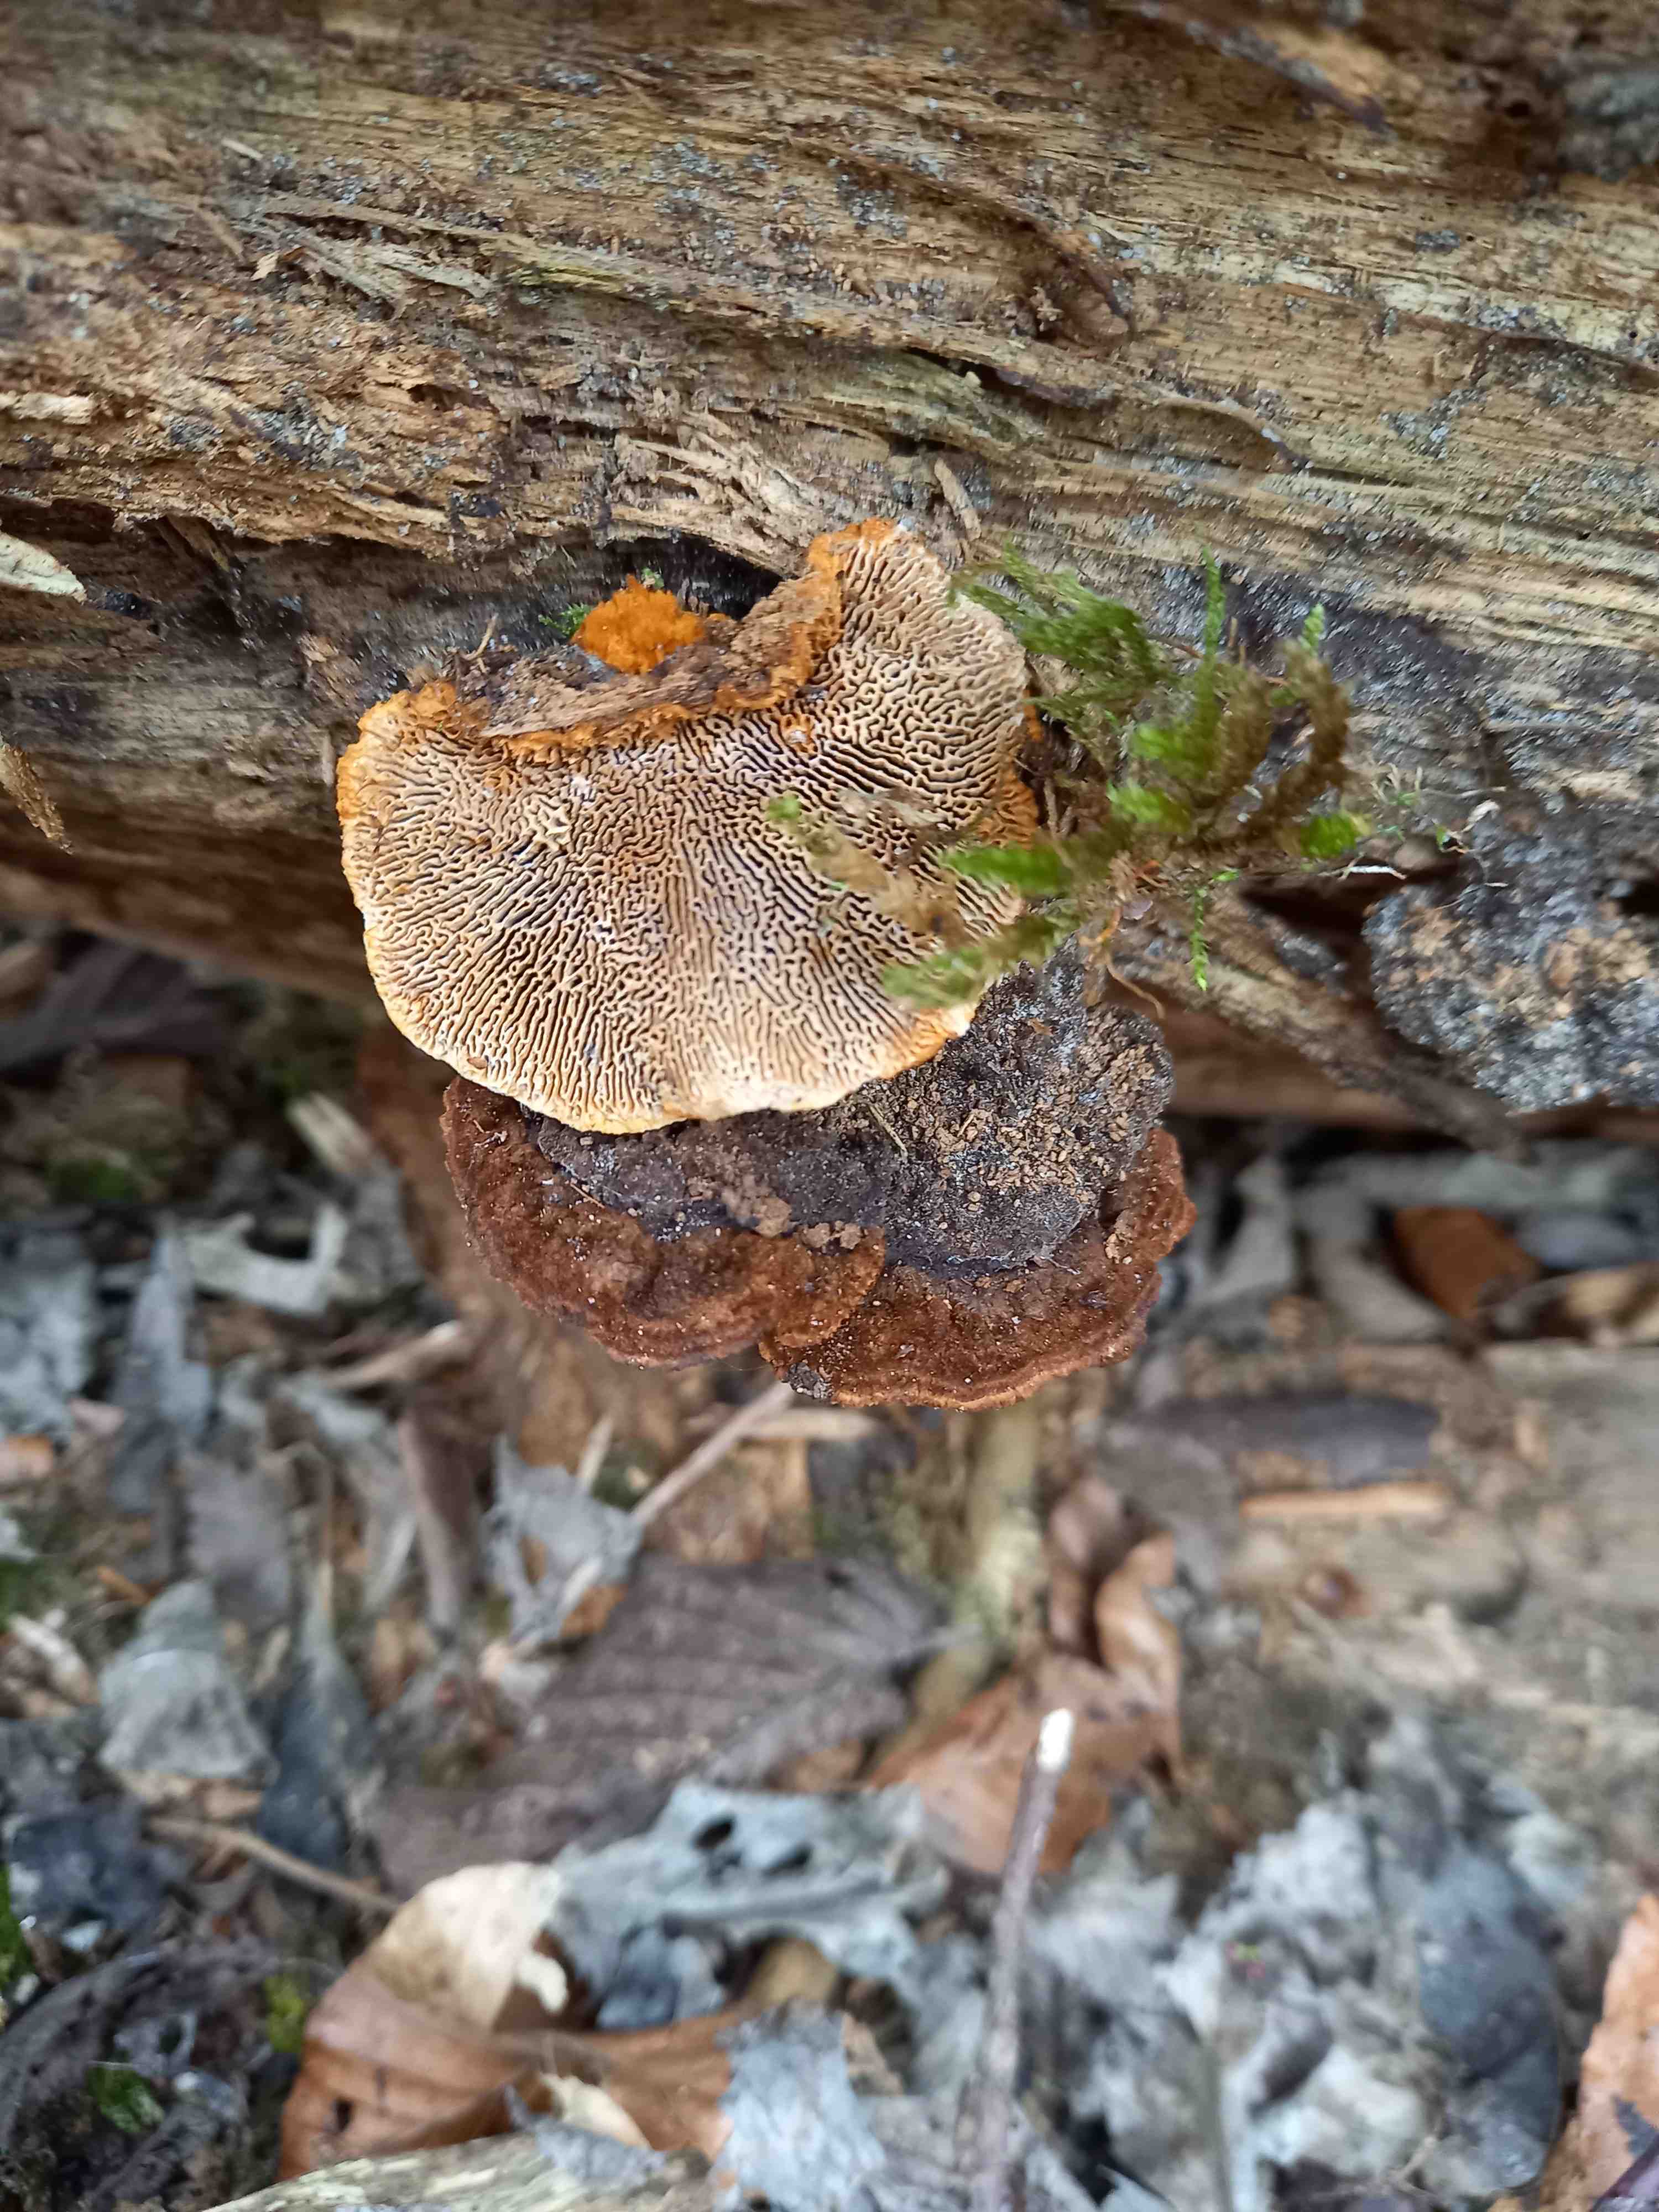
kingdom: Fungi
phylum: Basidiomycota
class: Agaricomycetes
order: Gloeophyllales
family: Gloeophyllaceae
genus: Gloeophyllum
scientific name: Gloeophyllum sepiarium
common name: fyrre-korkhat
